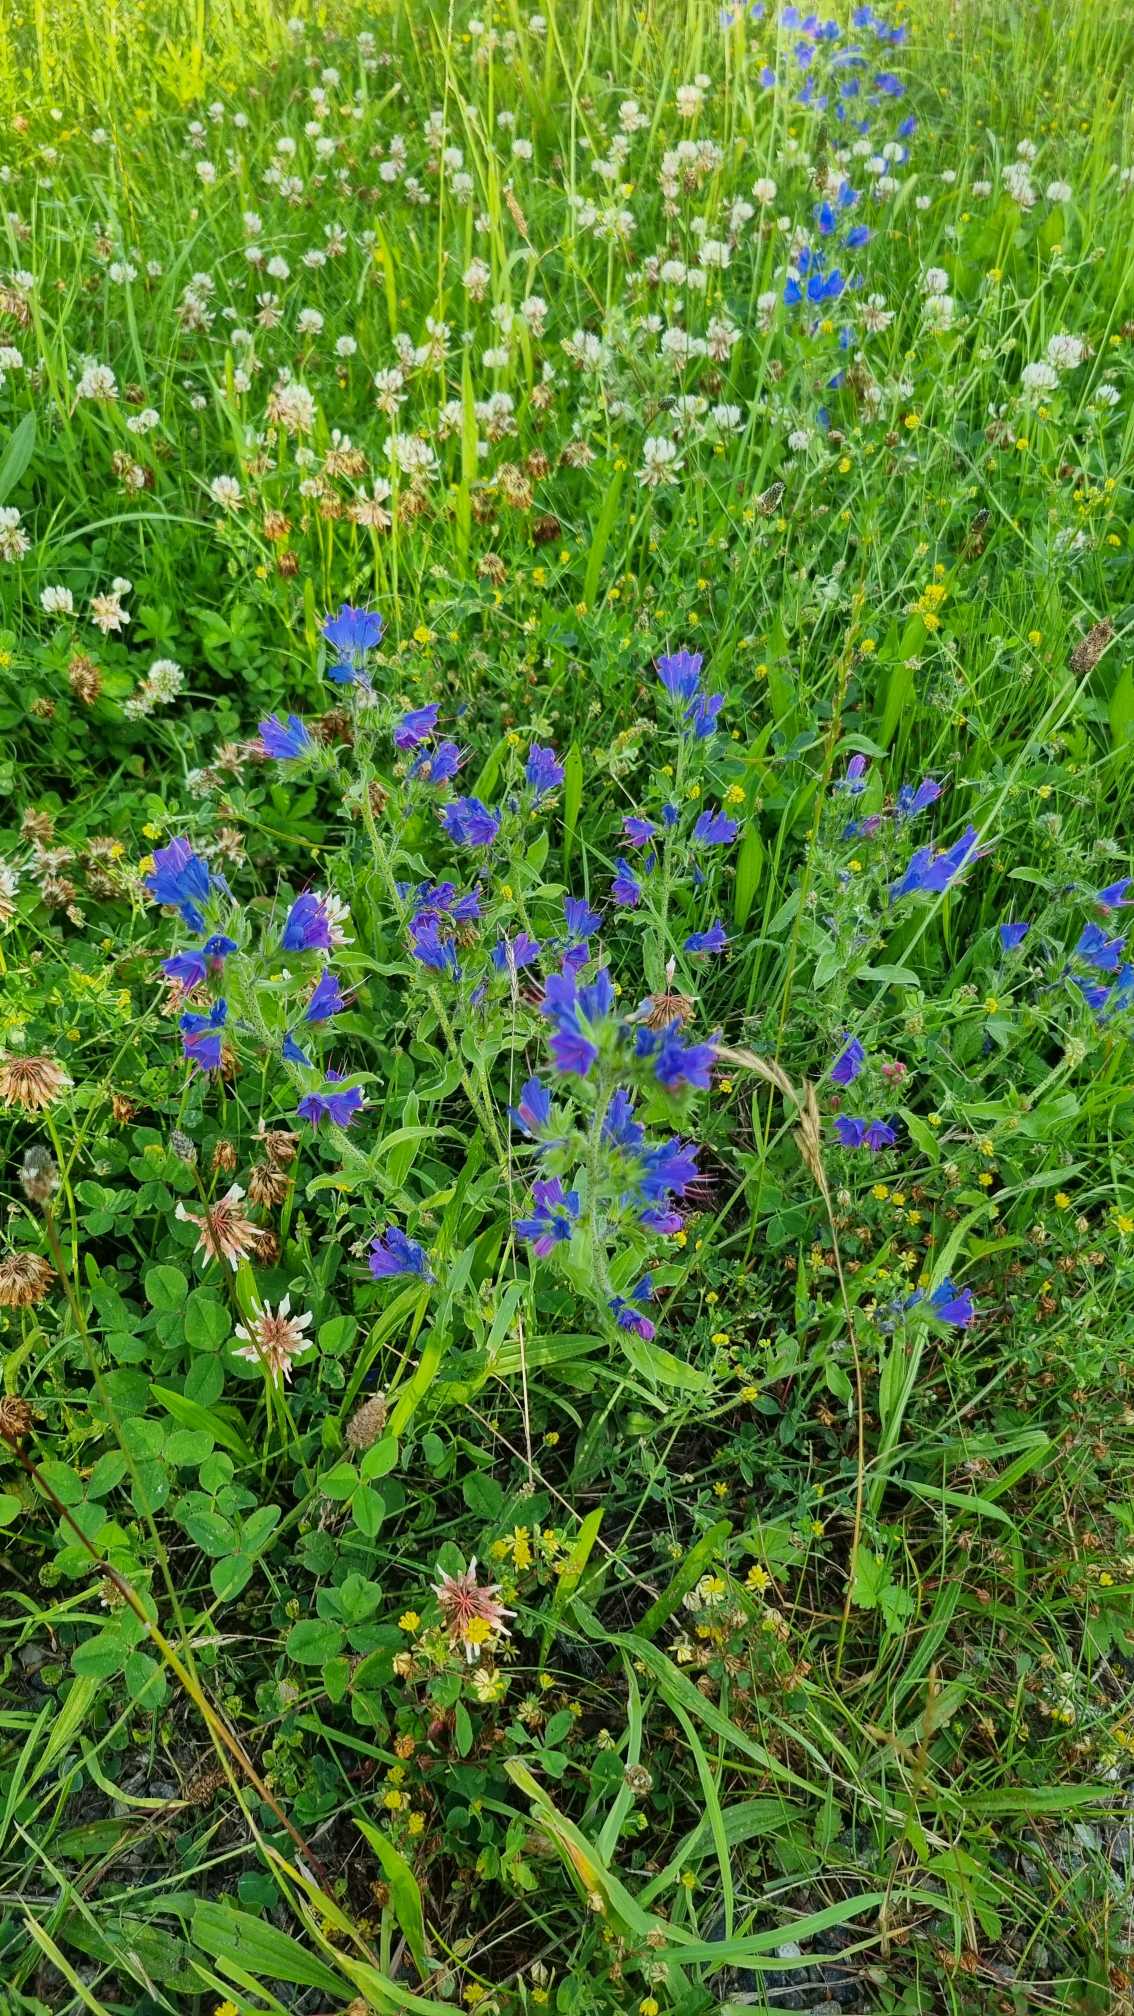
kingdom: Plantae
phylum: Tracheophyta
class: Magnoliopsida
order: Boraginales
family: Boraginaceae
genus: Echium
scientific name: Echium vulgare
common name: Slangehoved
